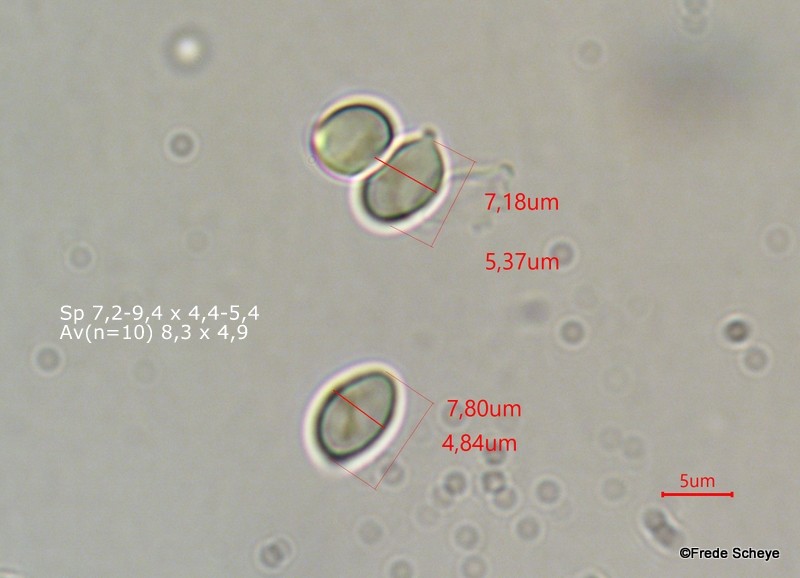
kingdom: Fungi
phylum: Basidiomycota
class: Agaricomycetes
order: Agaricales
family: Hygrophoraceae
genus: Hygrophorus
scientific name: Hygrophorus pustulatus
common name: mørkprikket sneglehat
